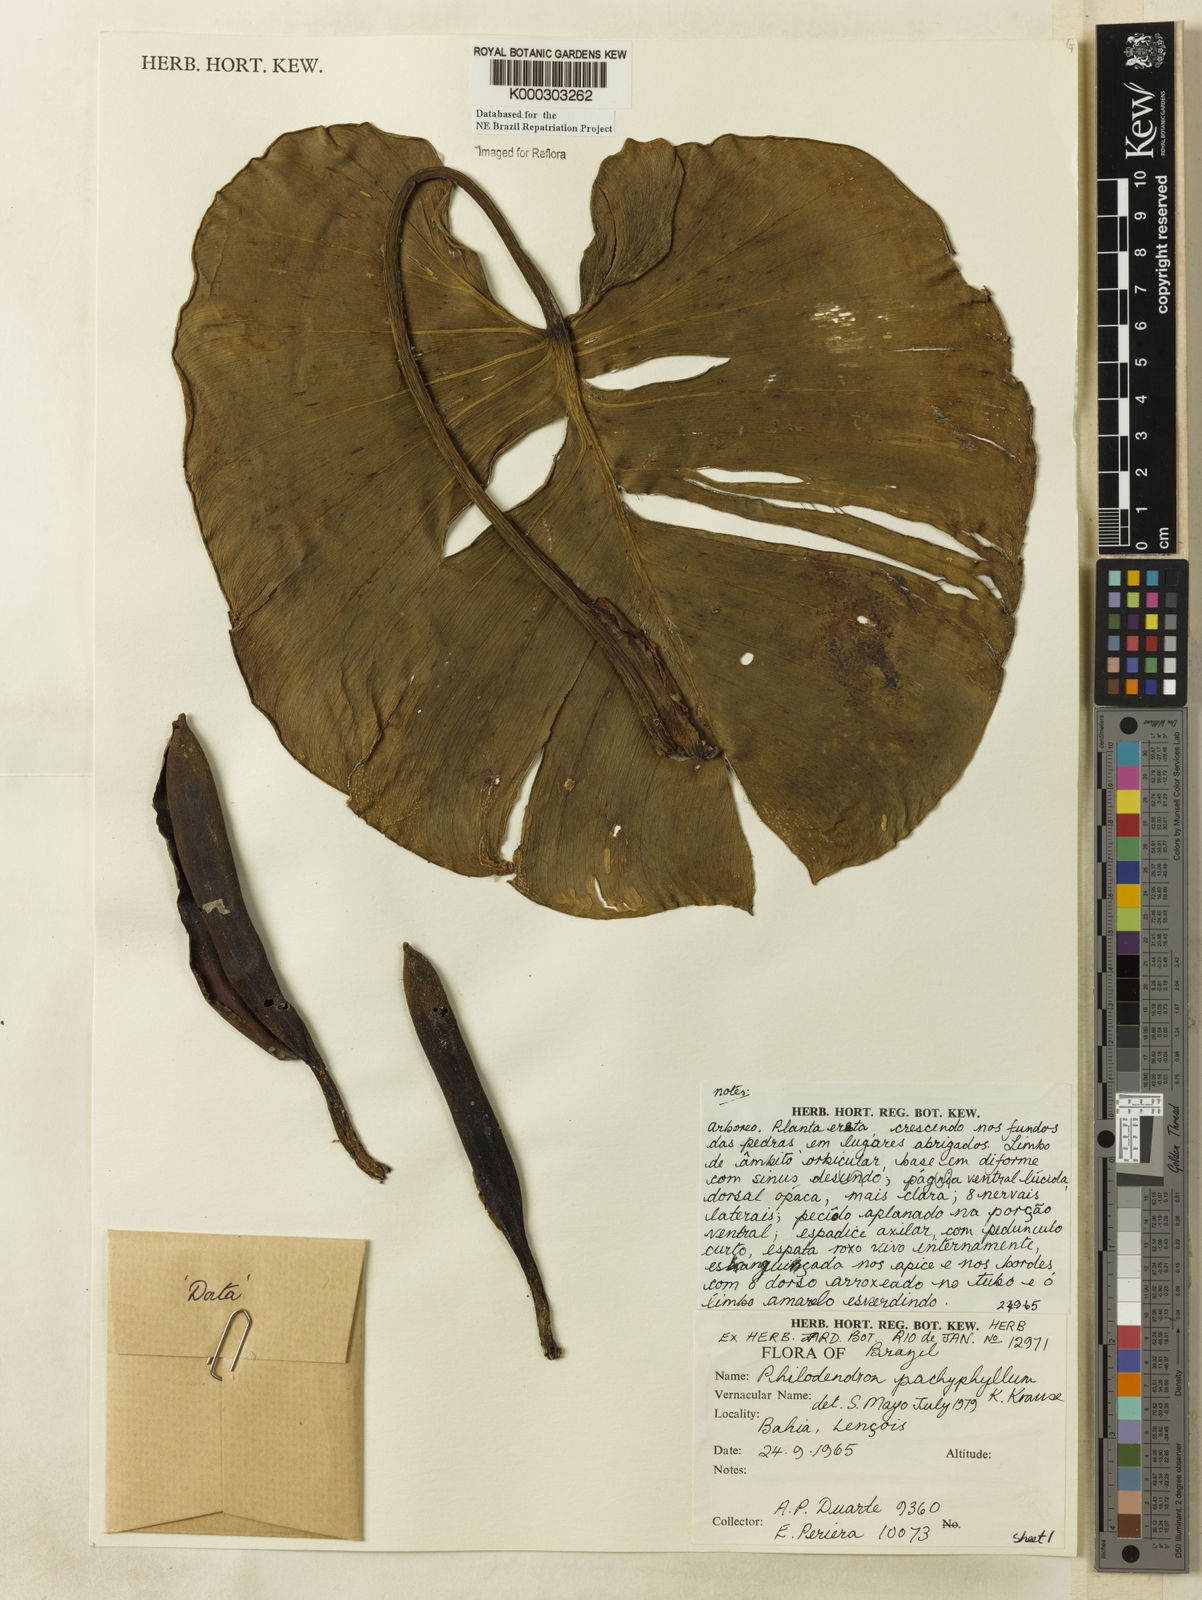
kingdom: Plantae
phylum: Tracheophyta
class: Liliopsida
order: Alismatales
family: Araceae
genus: Philodendron
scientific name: Philodendron pachyphyllum
